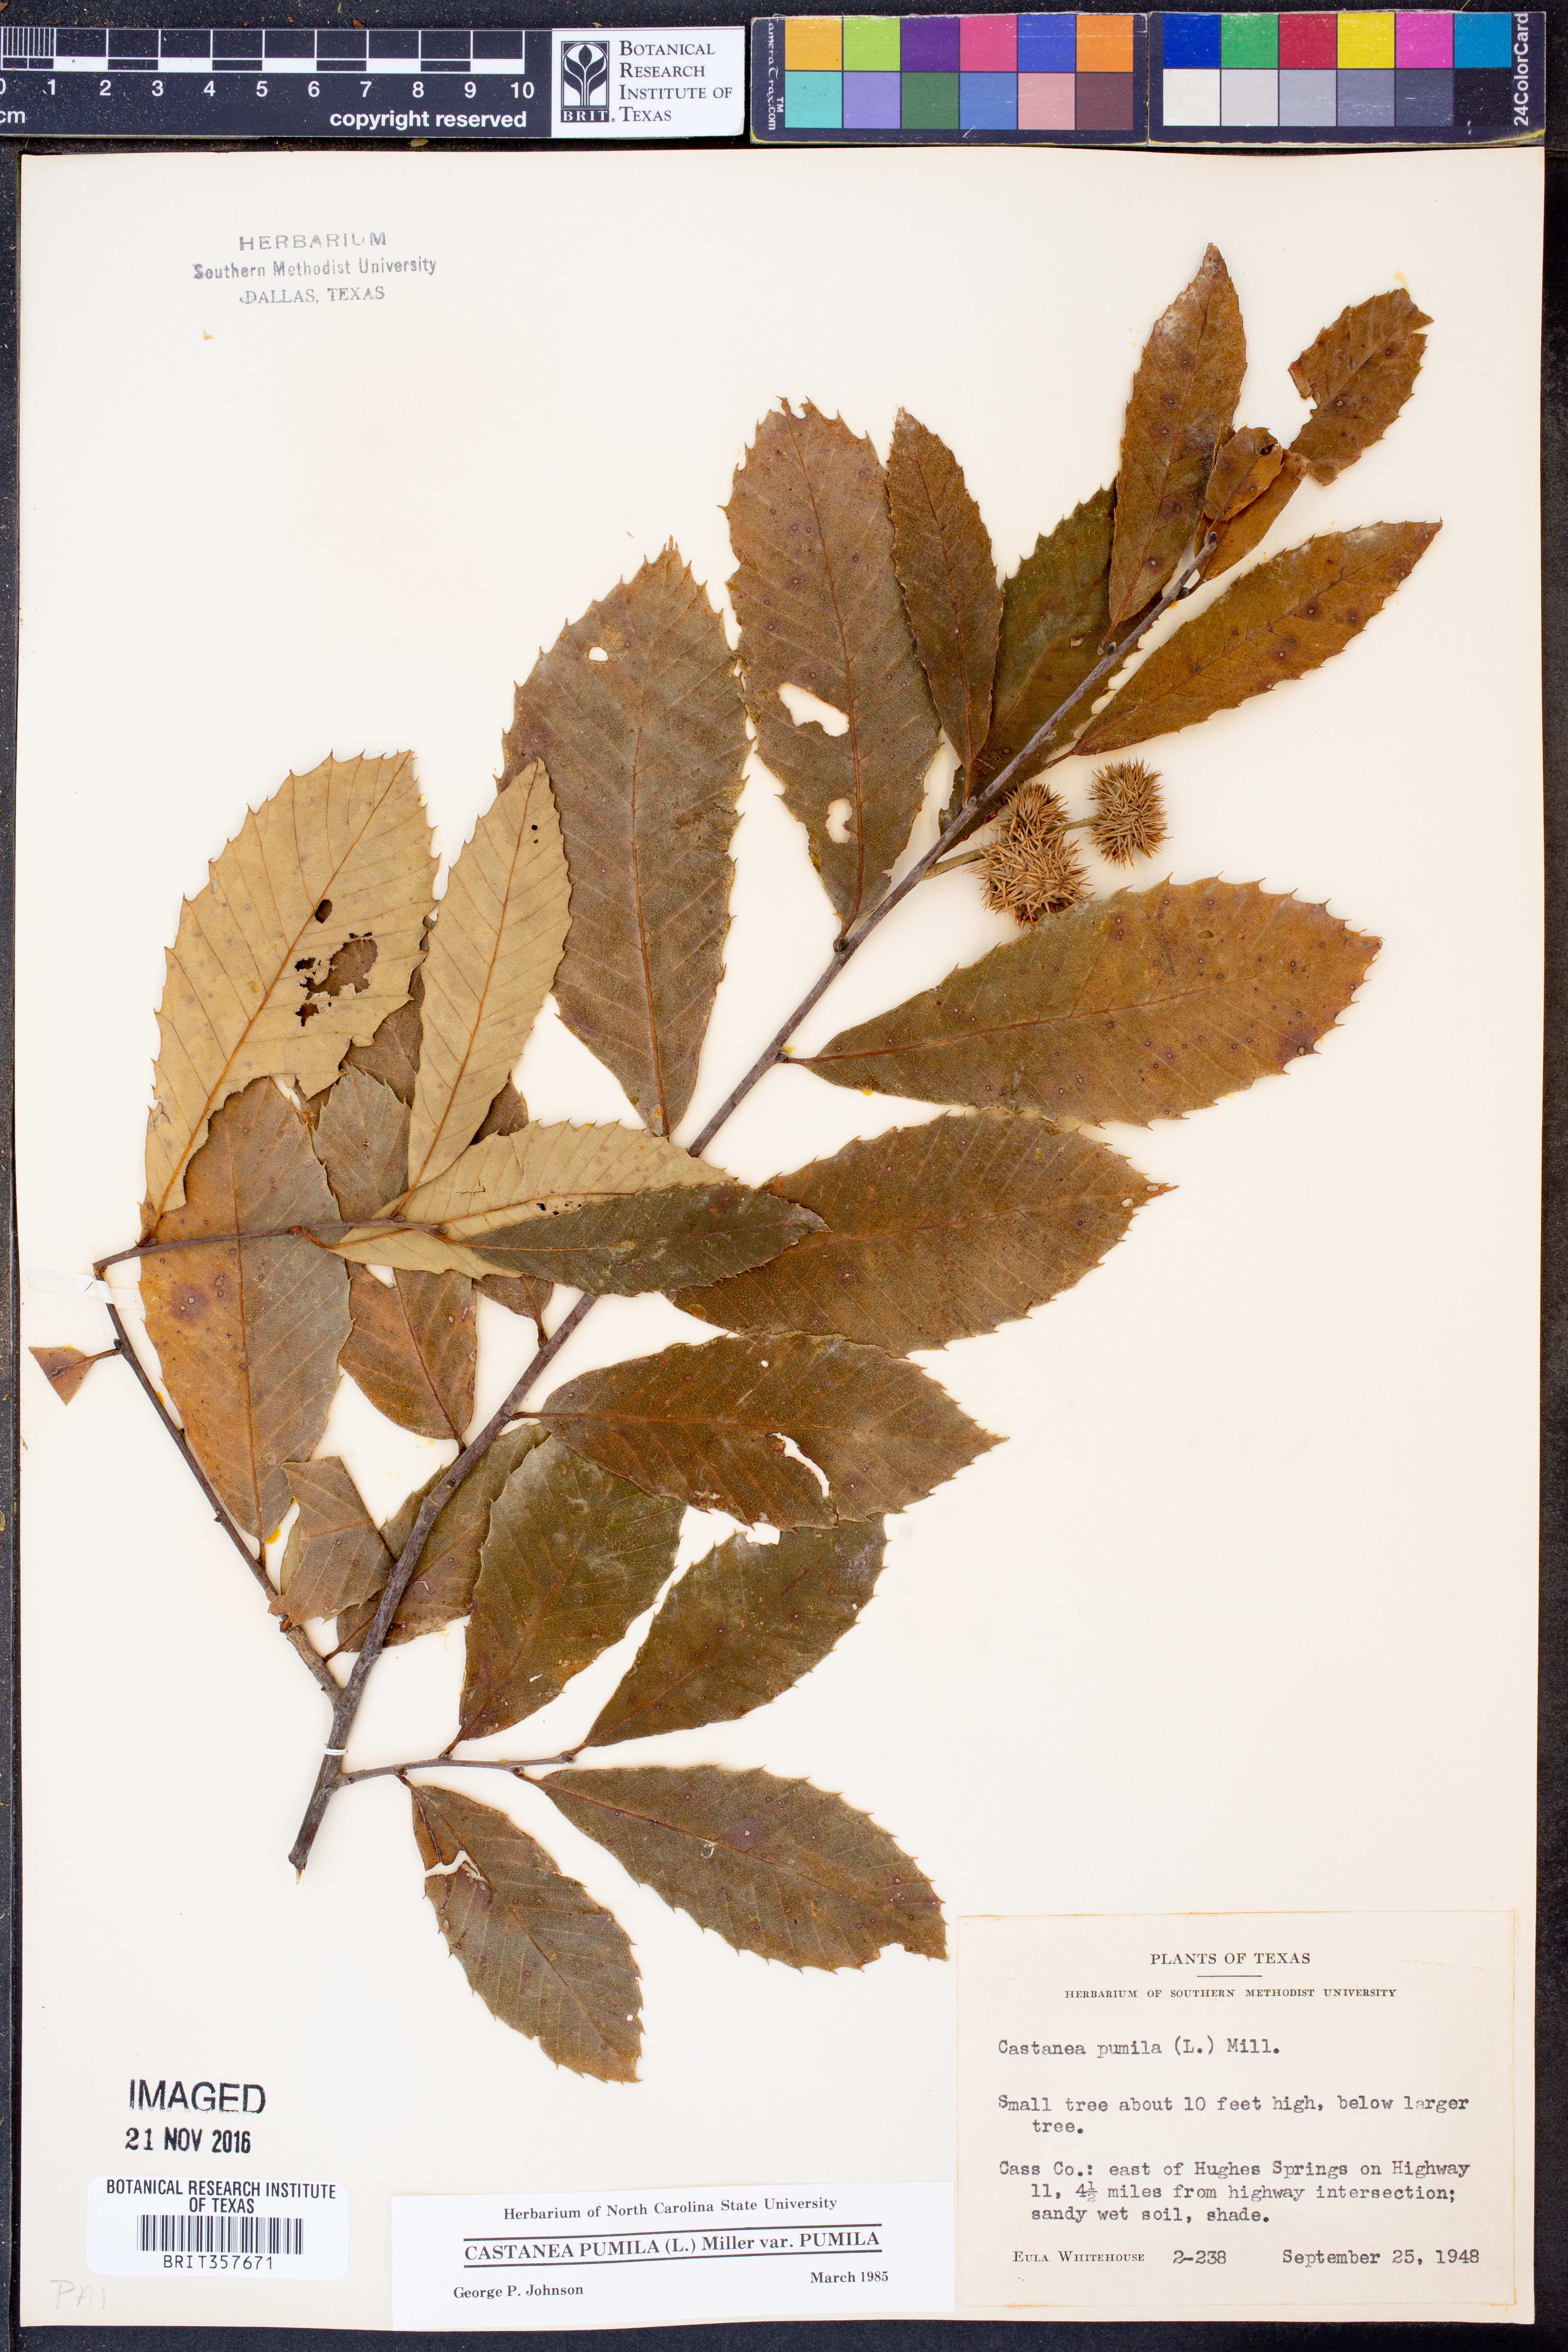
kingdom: Plantae
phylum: Tracheophyta
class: Magnoliopsida
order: Fagales
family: Fagaceae
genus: Castanea
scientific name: Castanea pumila
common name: Chinkapin
